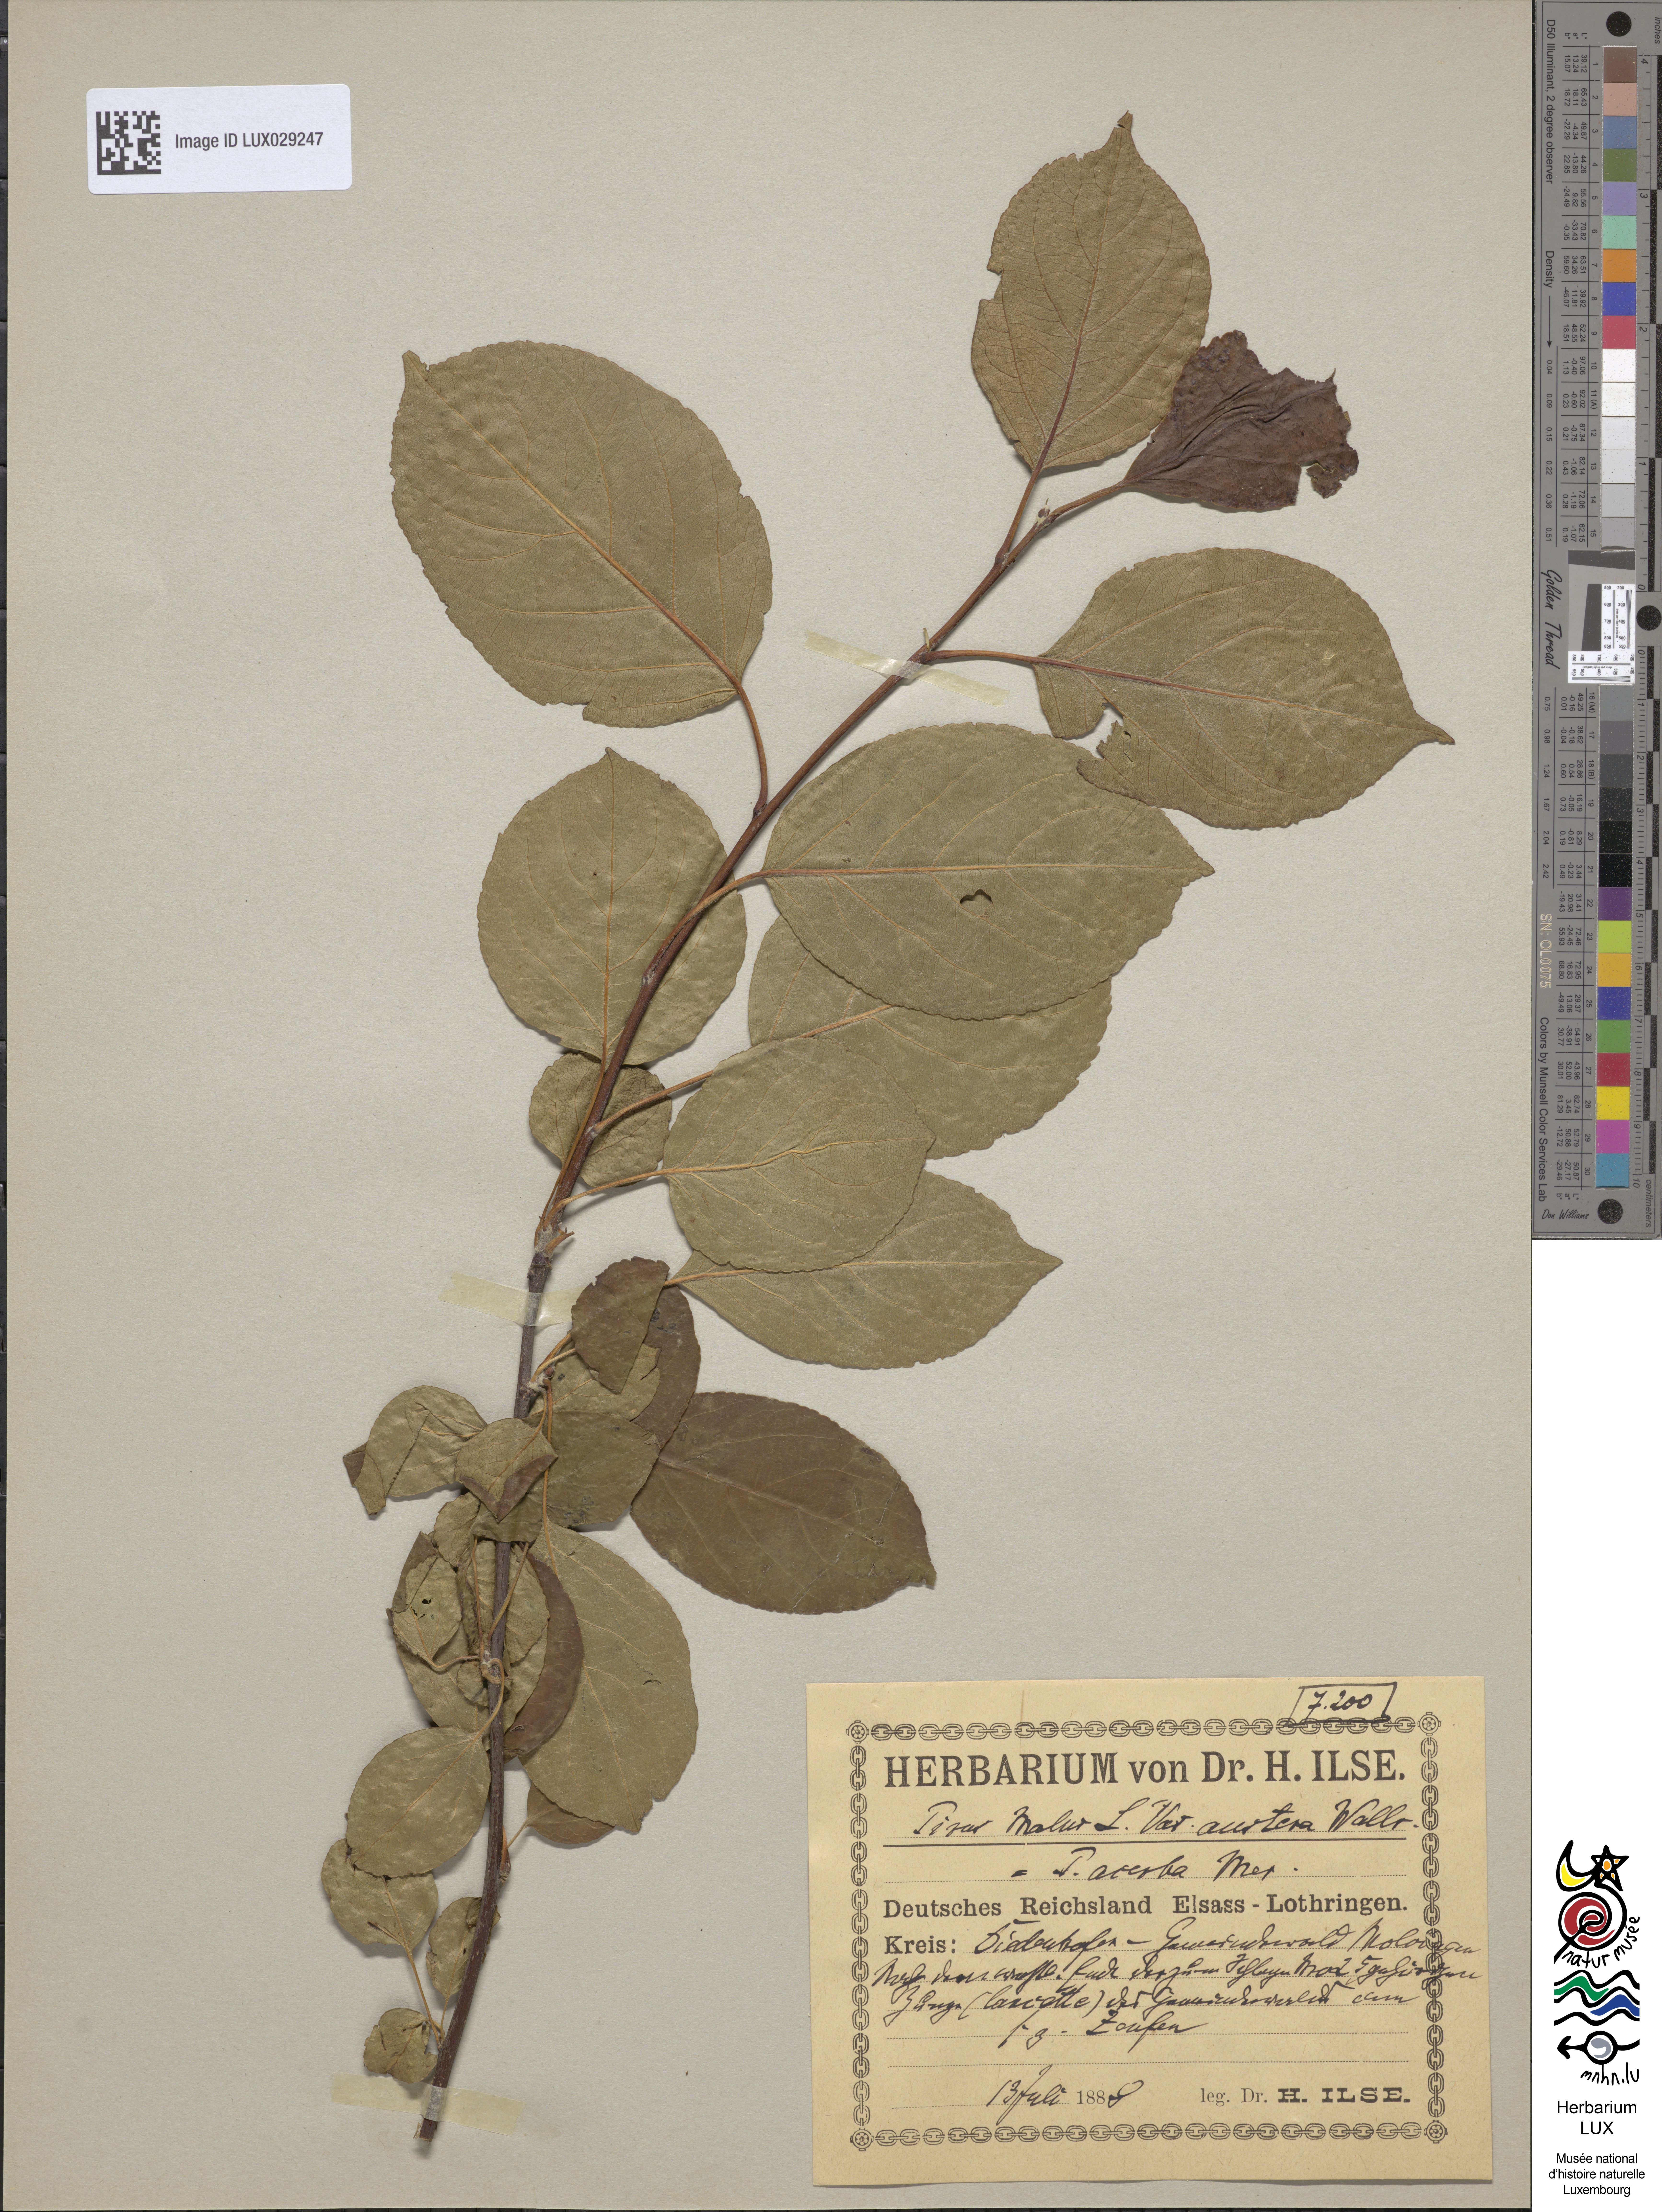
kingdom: Plantae
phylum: Tracheophyta
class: Magnoliopsida
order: Rosales
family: Rosaceae
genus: Malus
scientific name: Malus sylvestris
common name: Crab apple
